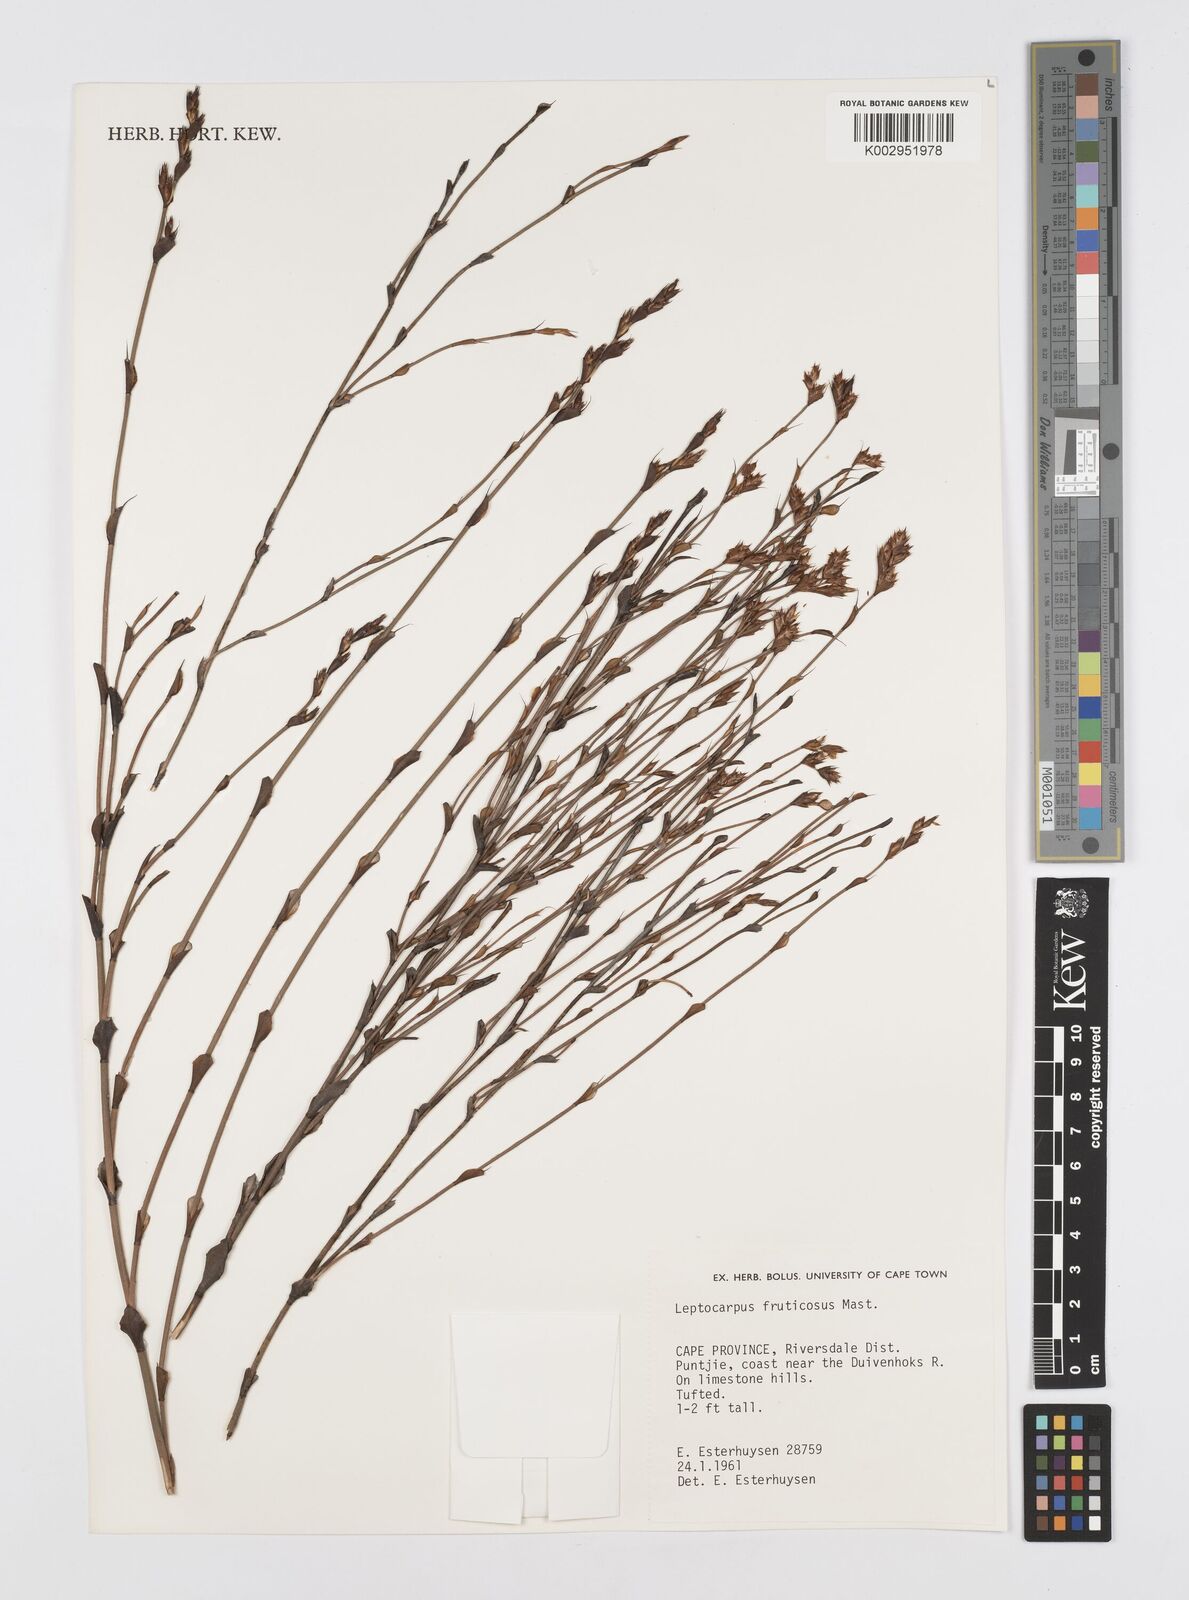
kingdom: Plantae
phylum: Tracheophyta
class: Liliopsida
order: Poales
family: Restionaceae
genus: Rhodocoma
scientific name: Rhodocoma fruticosa
